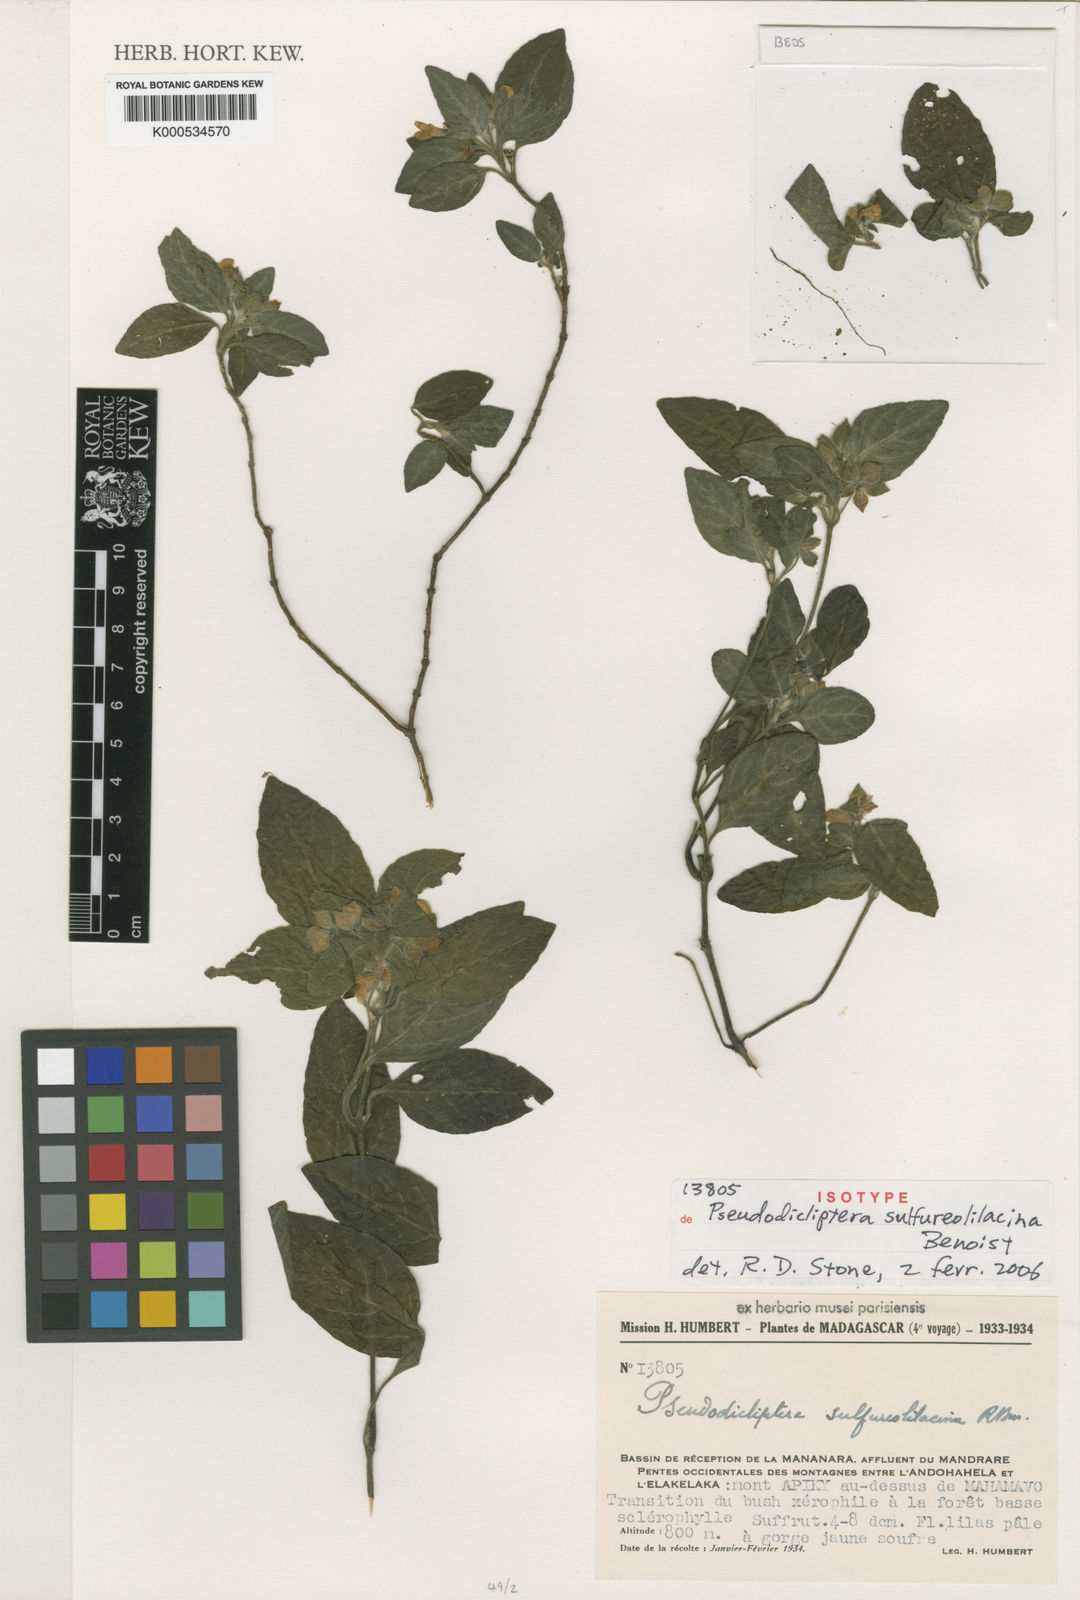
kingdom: Plantae
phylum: Tracheophyta
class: Magnoliopsida
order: Lamiales
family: Acanthaceae
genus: Pseudodicliptera
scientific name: Pseudodicliptera sulfureolilacina
